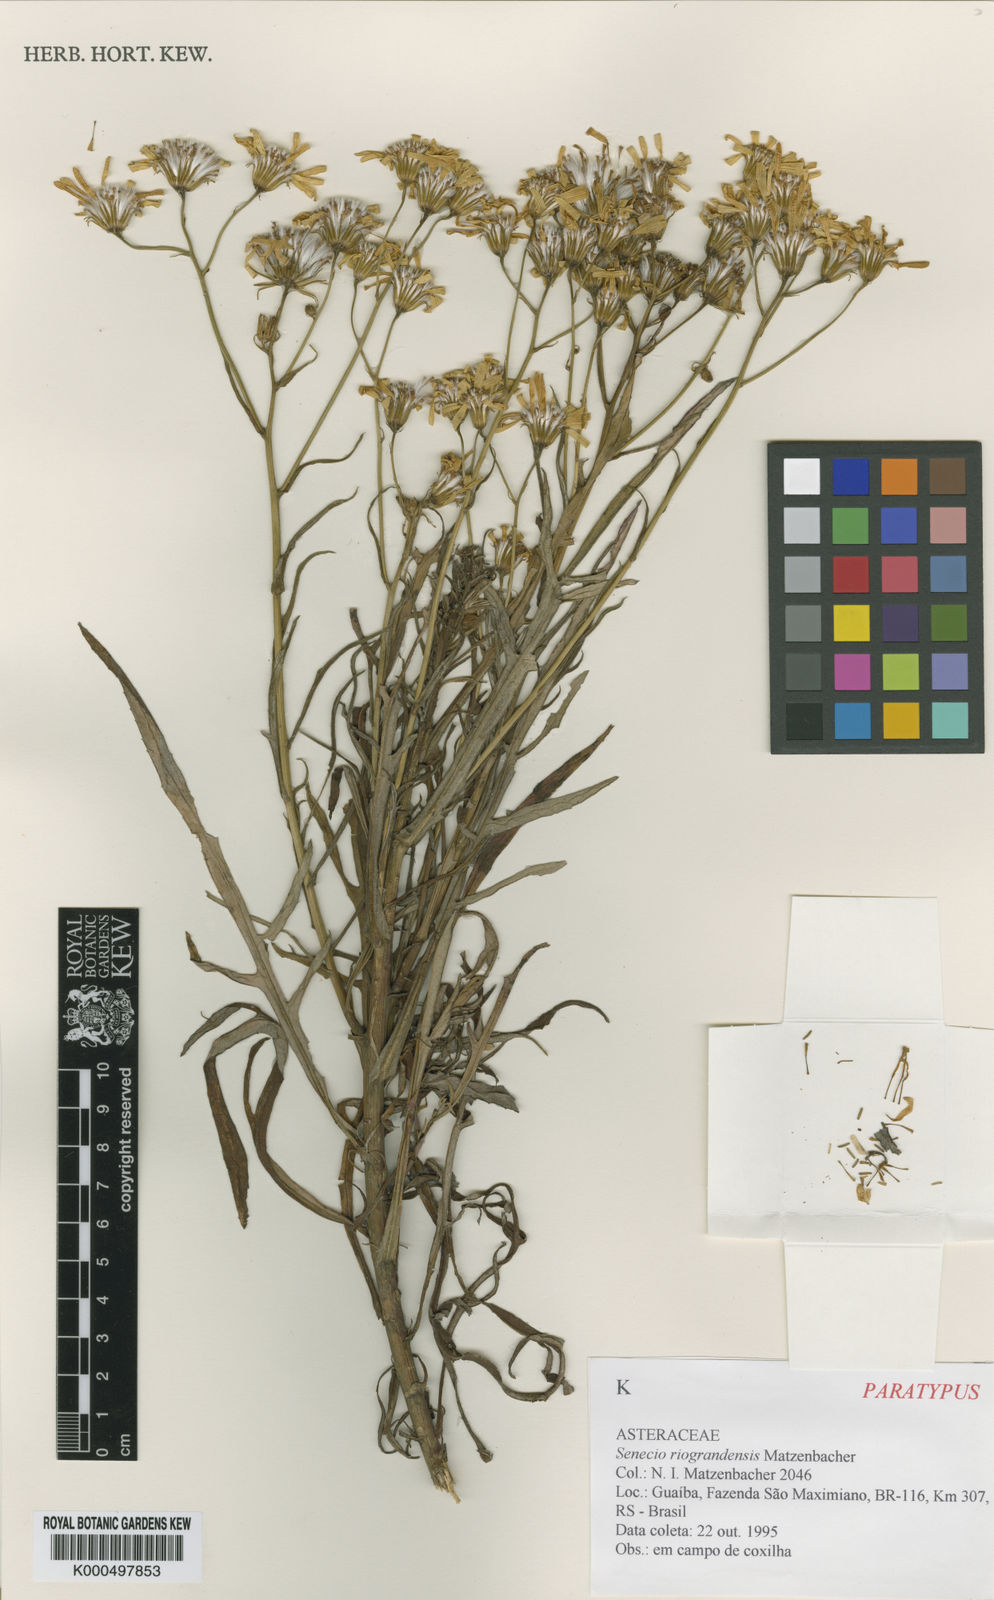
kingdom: Plantae
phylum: Tracheophyta
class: Magnoliopsida
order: Asterales
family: Asteraceae
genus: Senecio
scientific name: Senecio riograndensis
